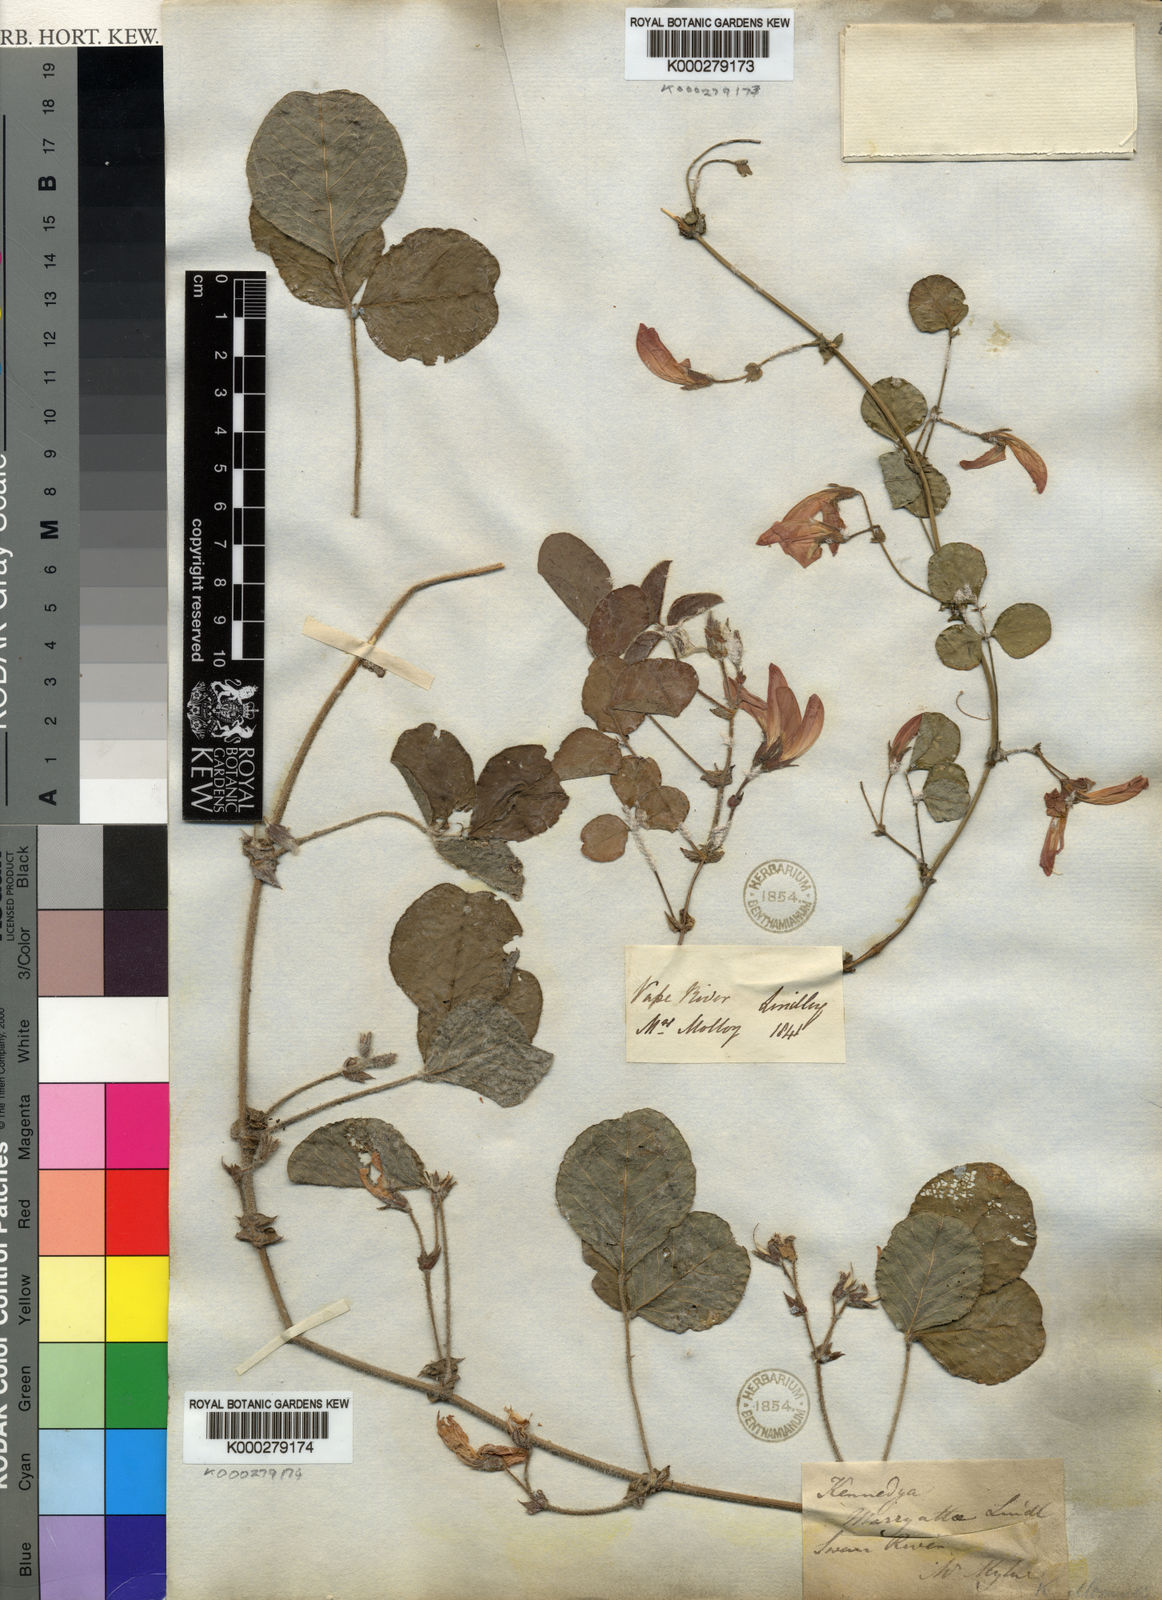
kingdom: Plantae
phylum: Tracheophyta
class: Magnoliopsida
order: Fabales
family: Fabaceae
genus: Kennedia
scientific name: Kennedia lateritia
